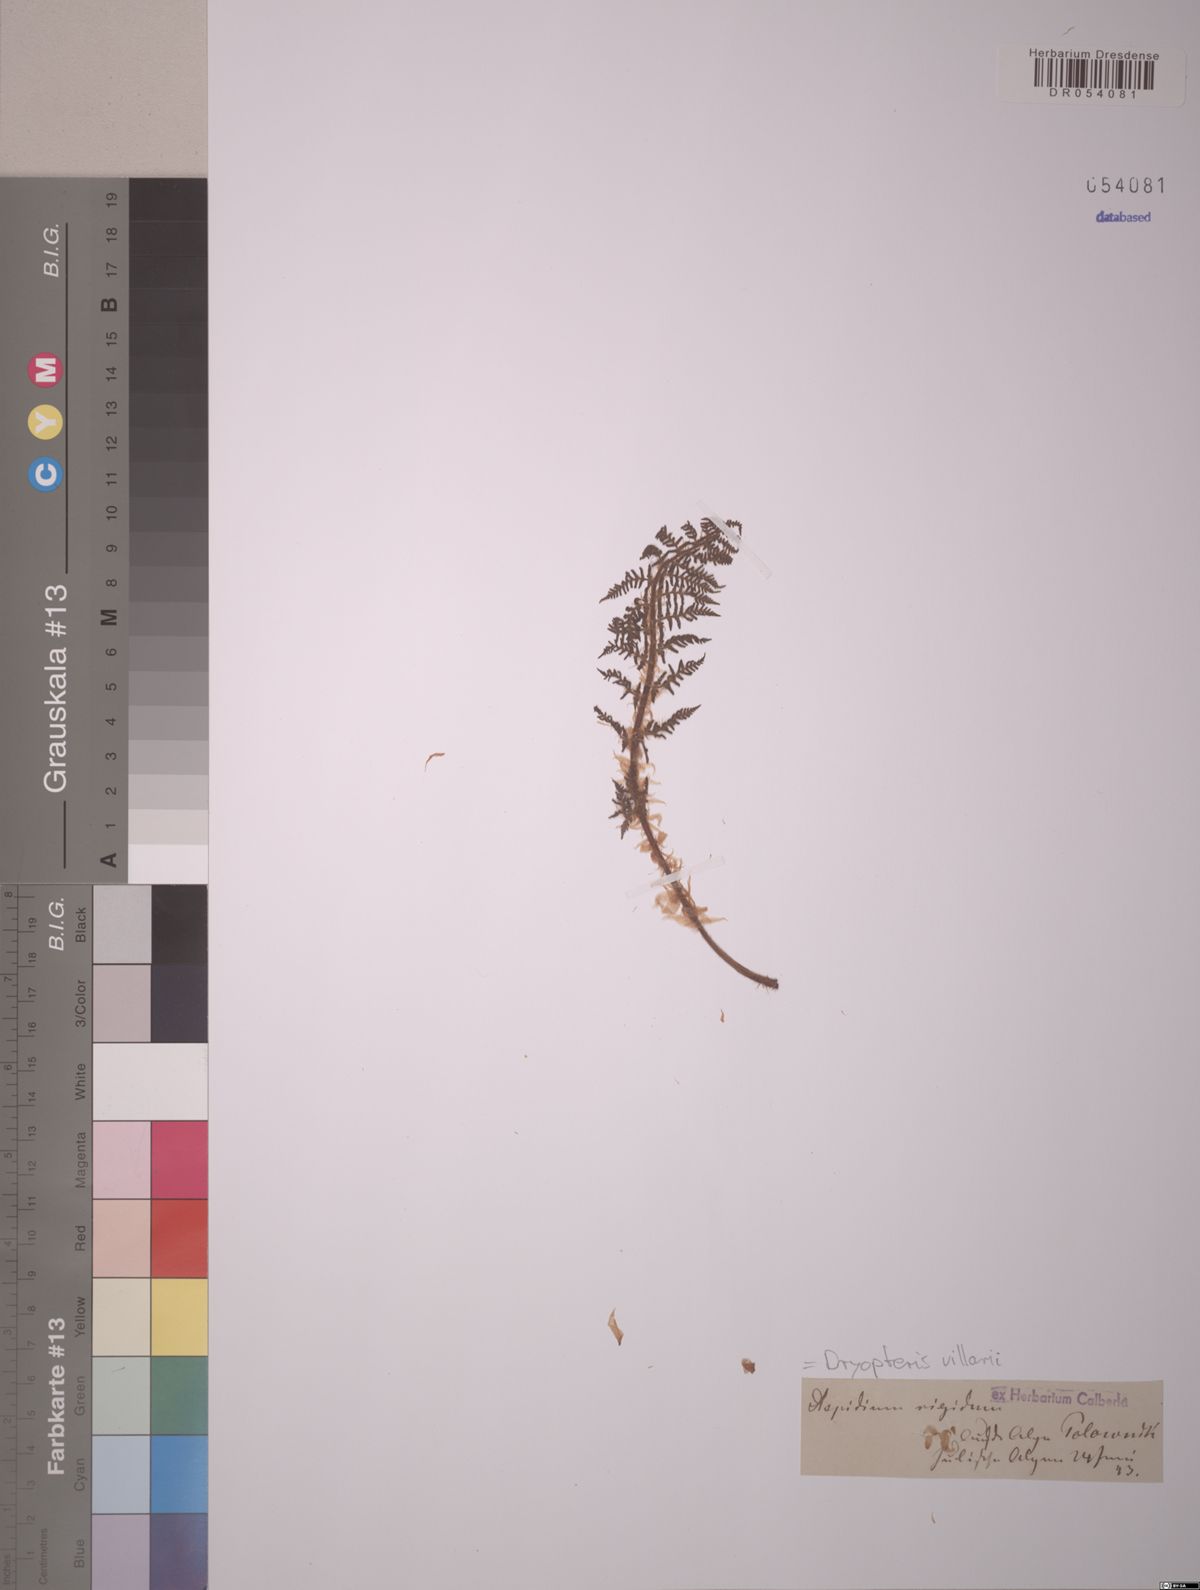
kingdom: Plantae
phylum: Tracheophyta
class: Polypodiopsida
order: Polypodiales
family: Dryopteridaceae
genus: Dryopteris
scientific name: Dryopteris villarii
